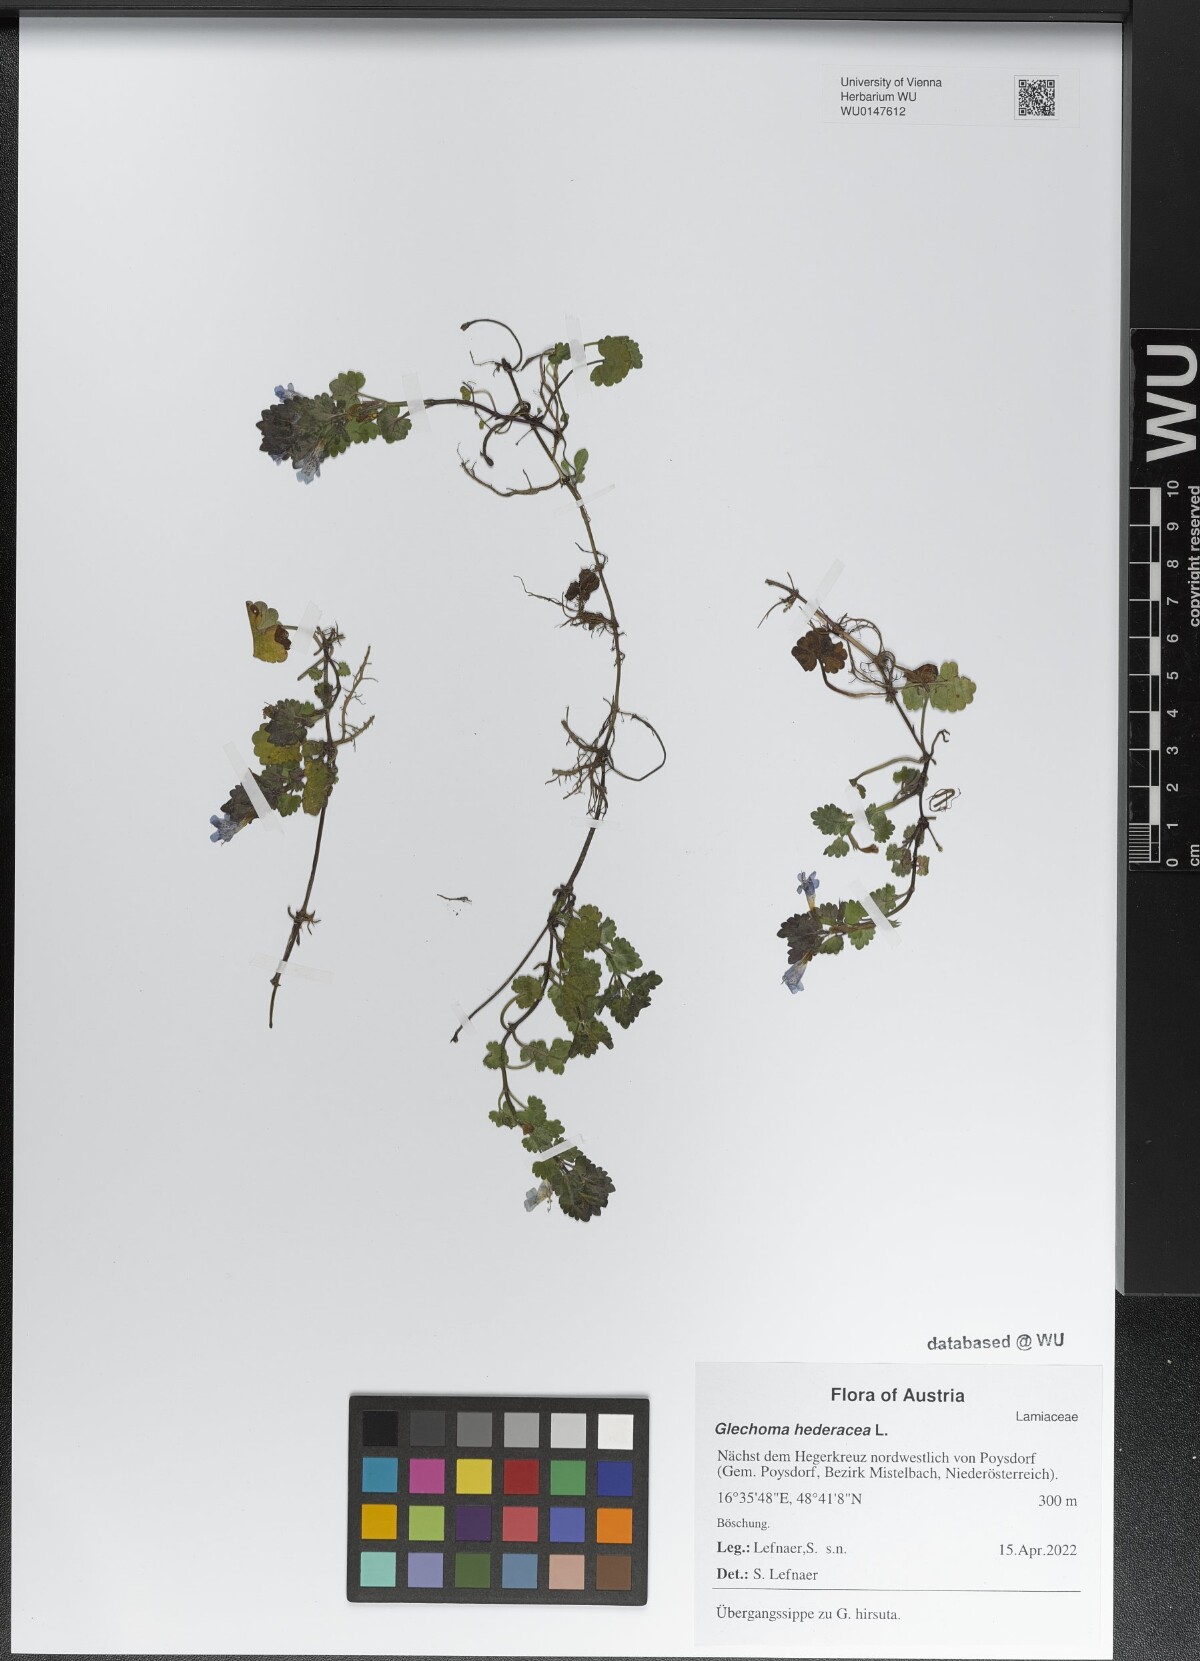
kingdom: Plantae
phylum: Tracheophyta
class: Magnoliopsida
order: Lamiales
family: Lamiaceae
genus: Glechoma
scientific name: Glechoma hederacea
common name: Ground ivy
